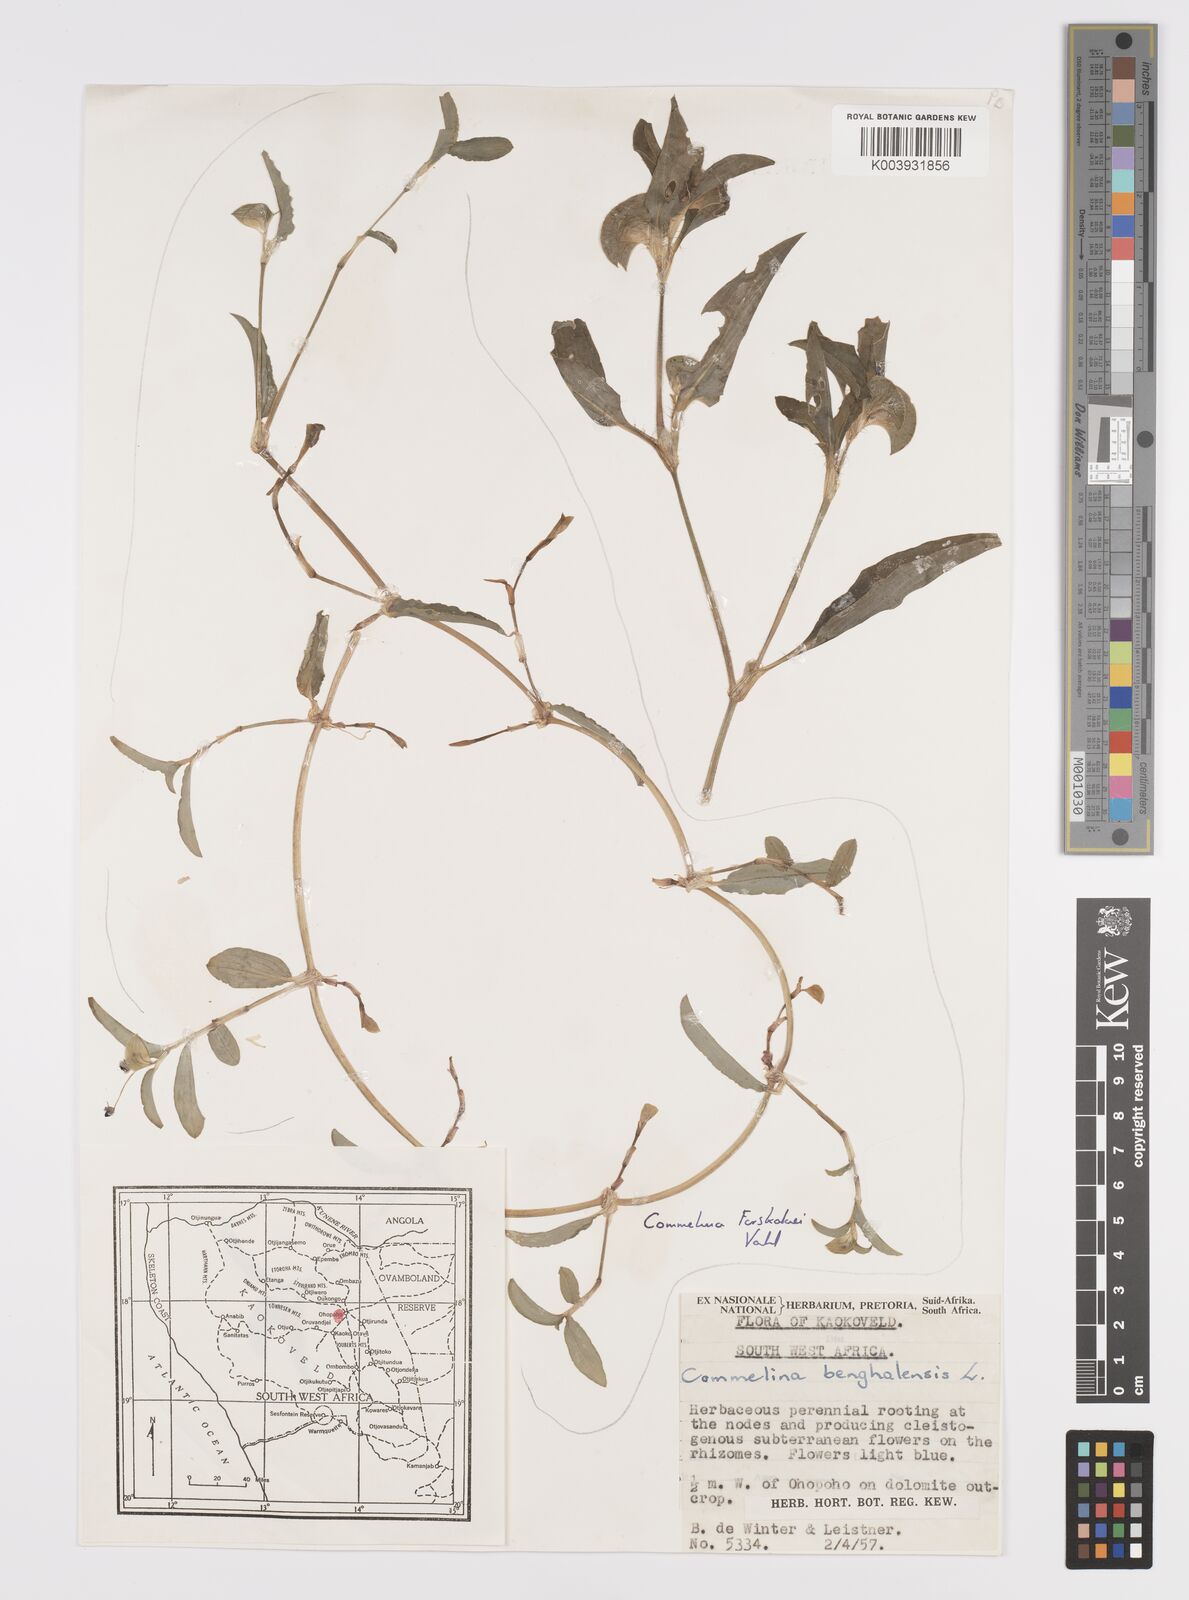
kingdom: Plantae
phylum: Tracheophyta
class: Liliopsida
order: Commelinales
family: Commelinaceae
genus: Commelina
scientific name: Commelina forskaolii
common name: Rat's ear
